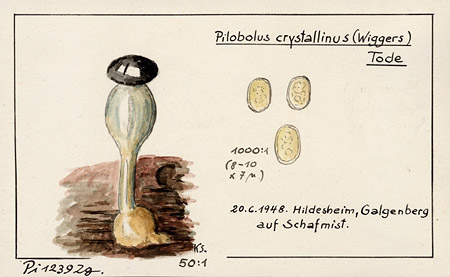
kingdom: Fungi
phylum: Mucoromycota
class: Mucoromycetes
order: Mucorales
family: Pilobolaceae
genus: Pilobolus
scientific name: Pilobolus crystallinus
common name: Dung cannon
